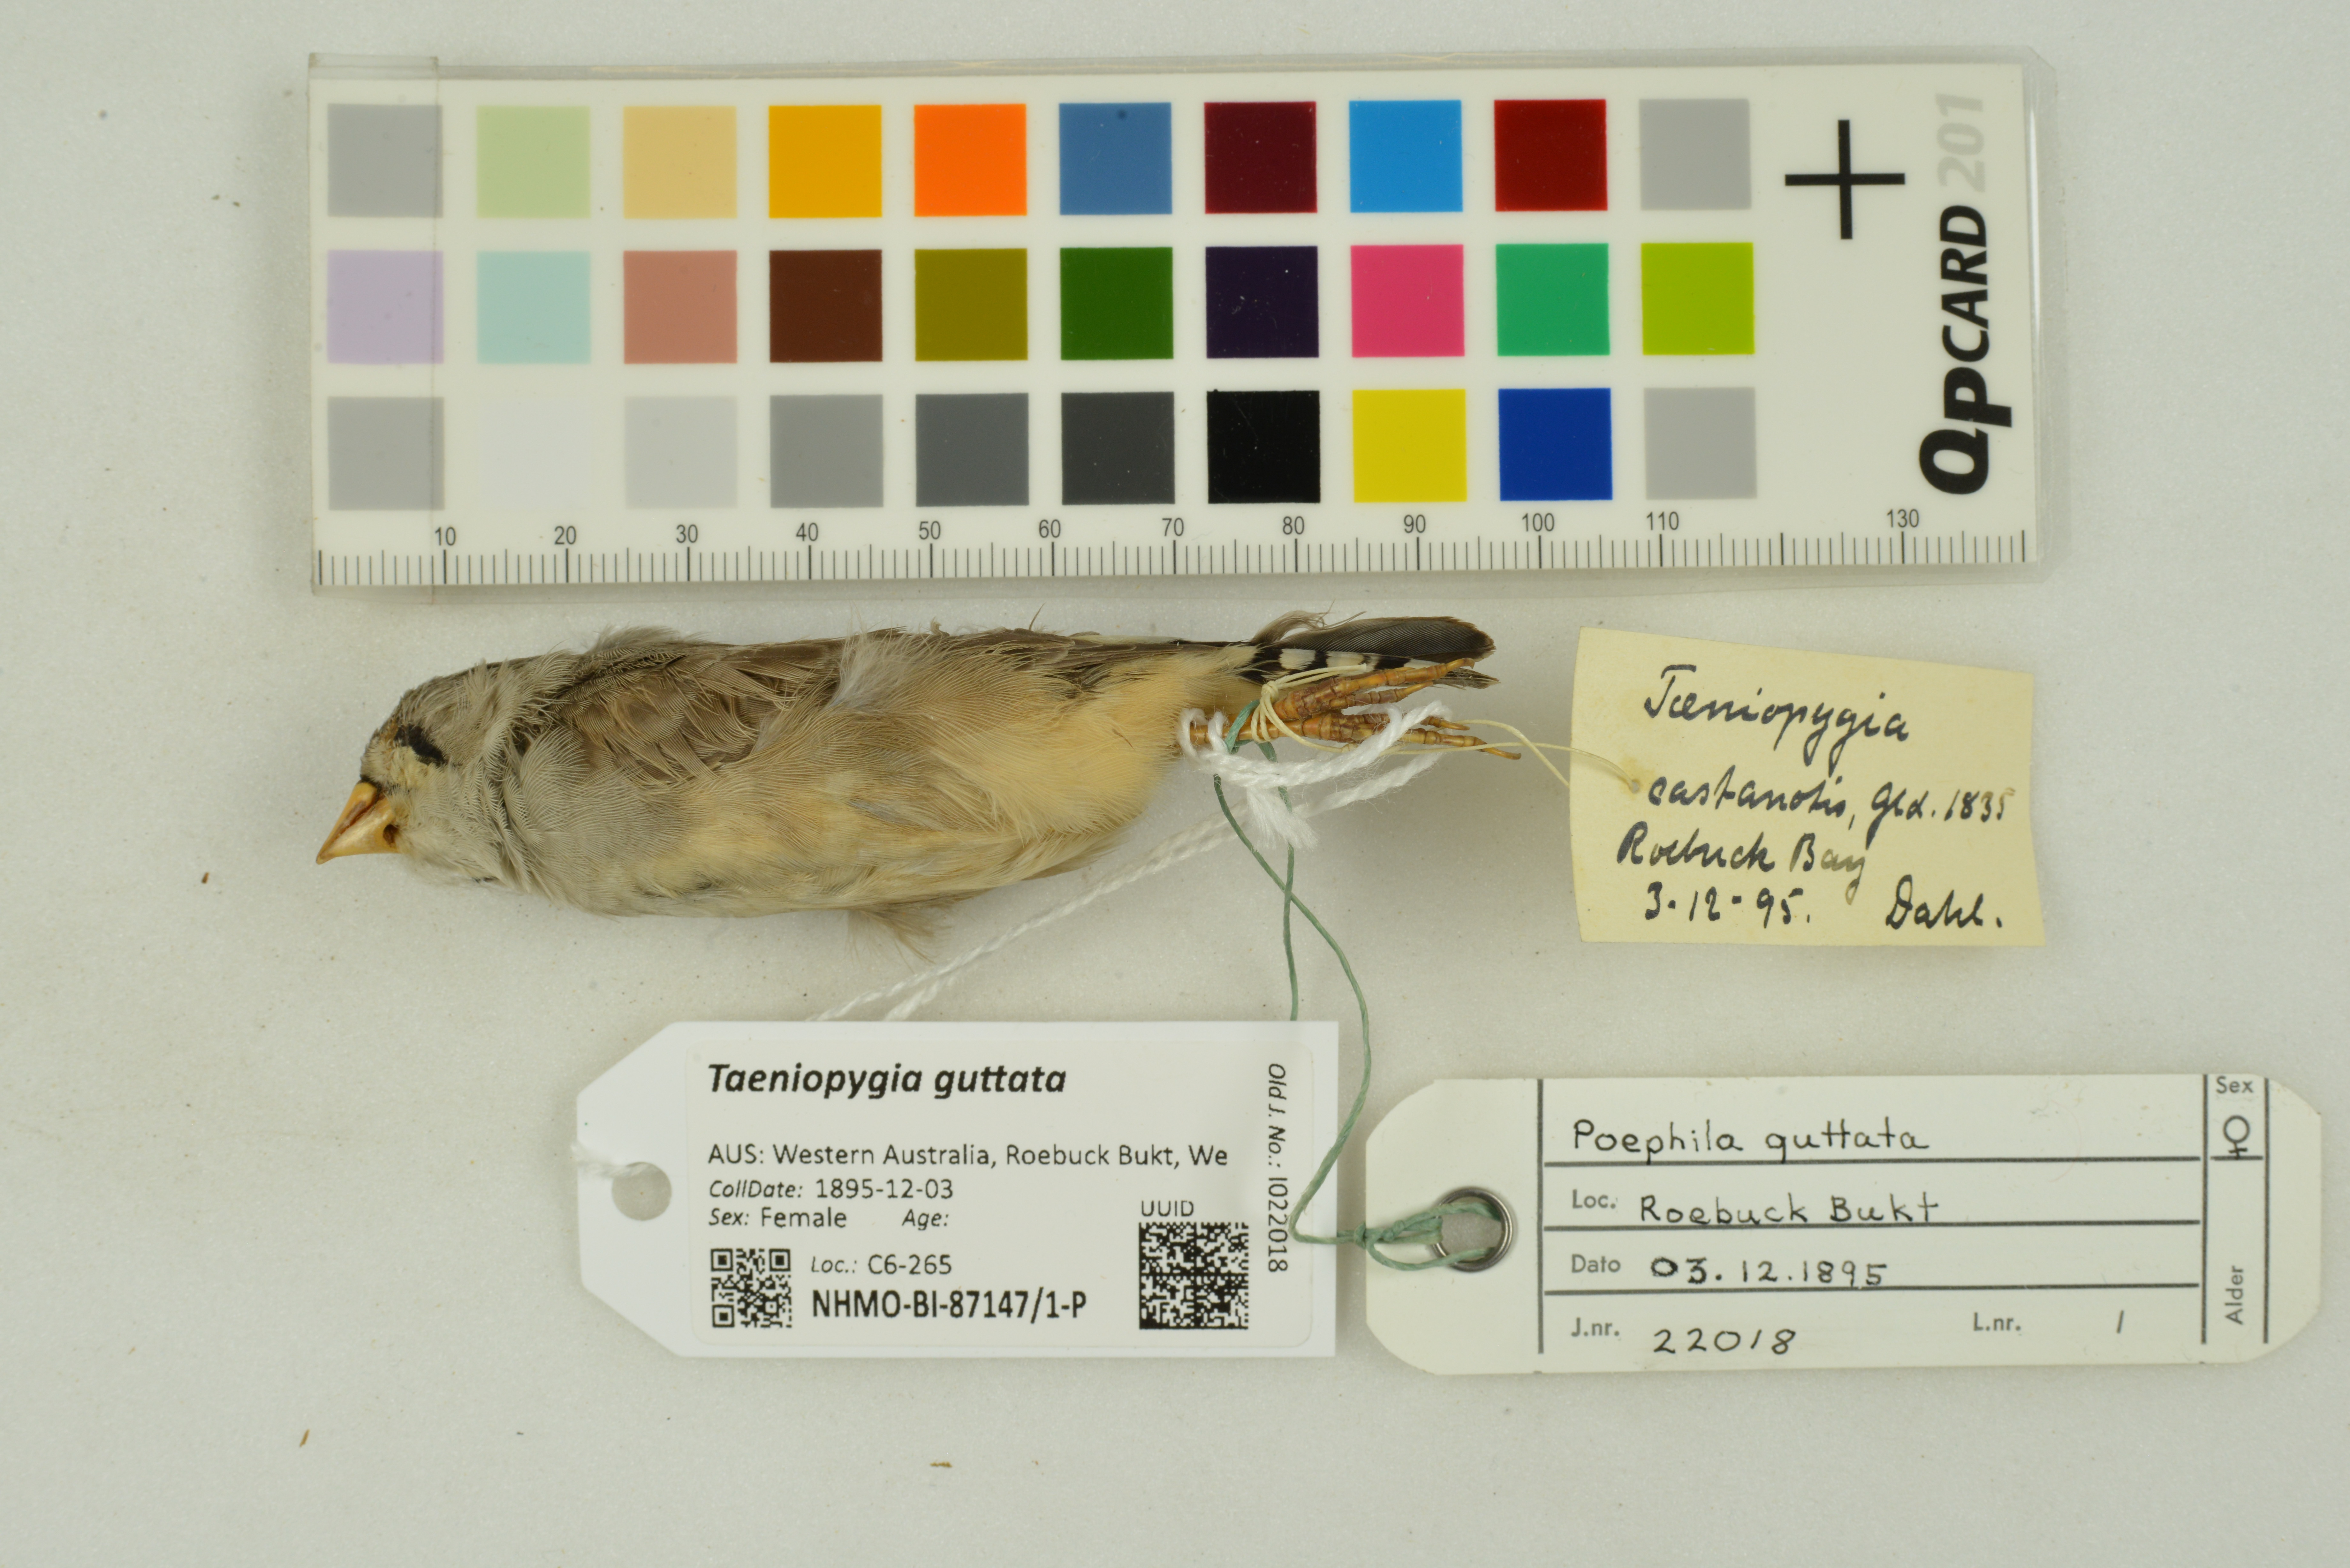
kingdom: Animalia
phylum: Chordata
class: Aves
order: Passeriformes
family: Estrildidae
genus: Taeniopygia
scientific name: Taeniopygia guttata
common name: Zebra finch
